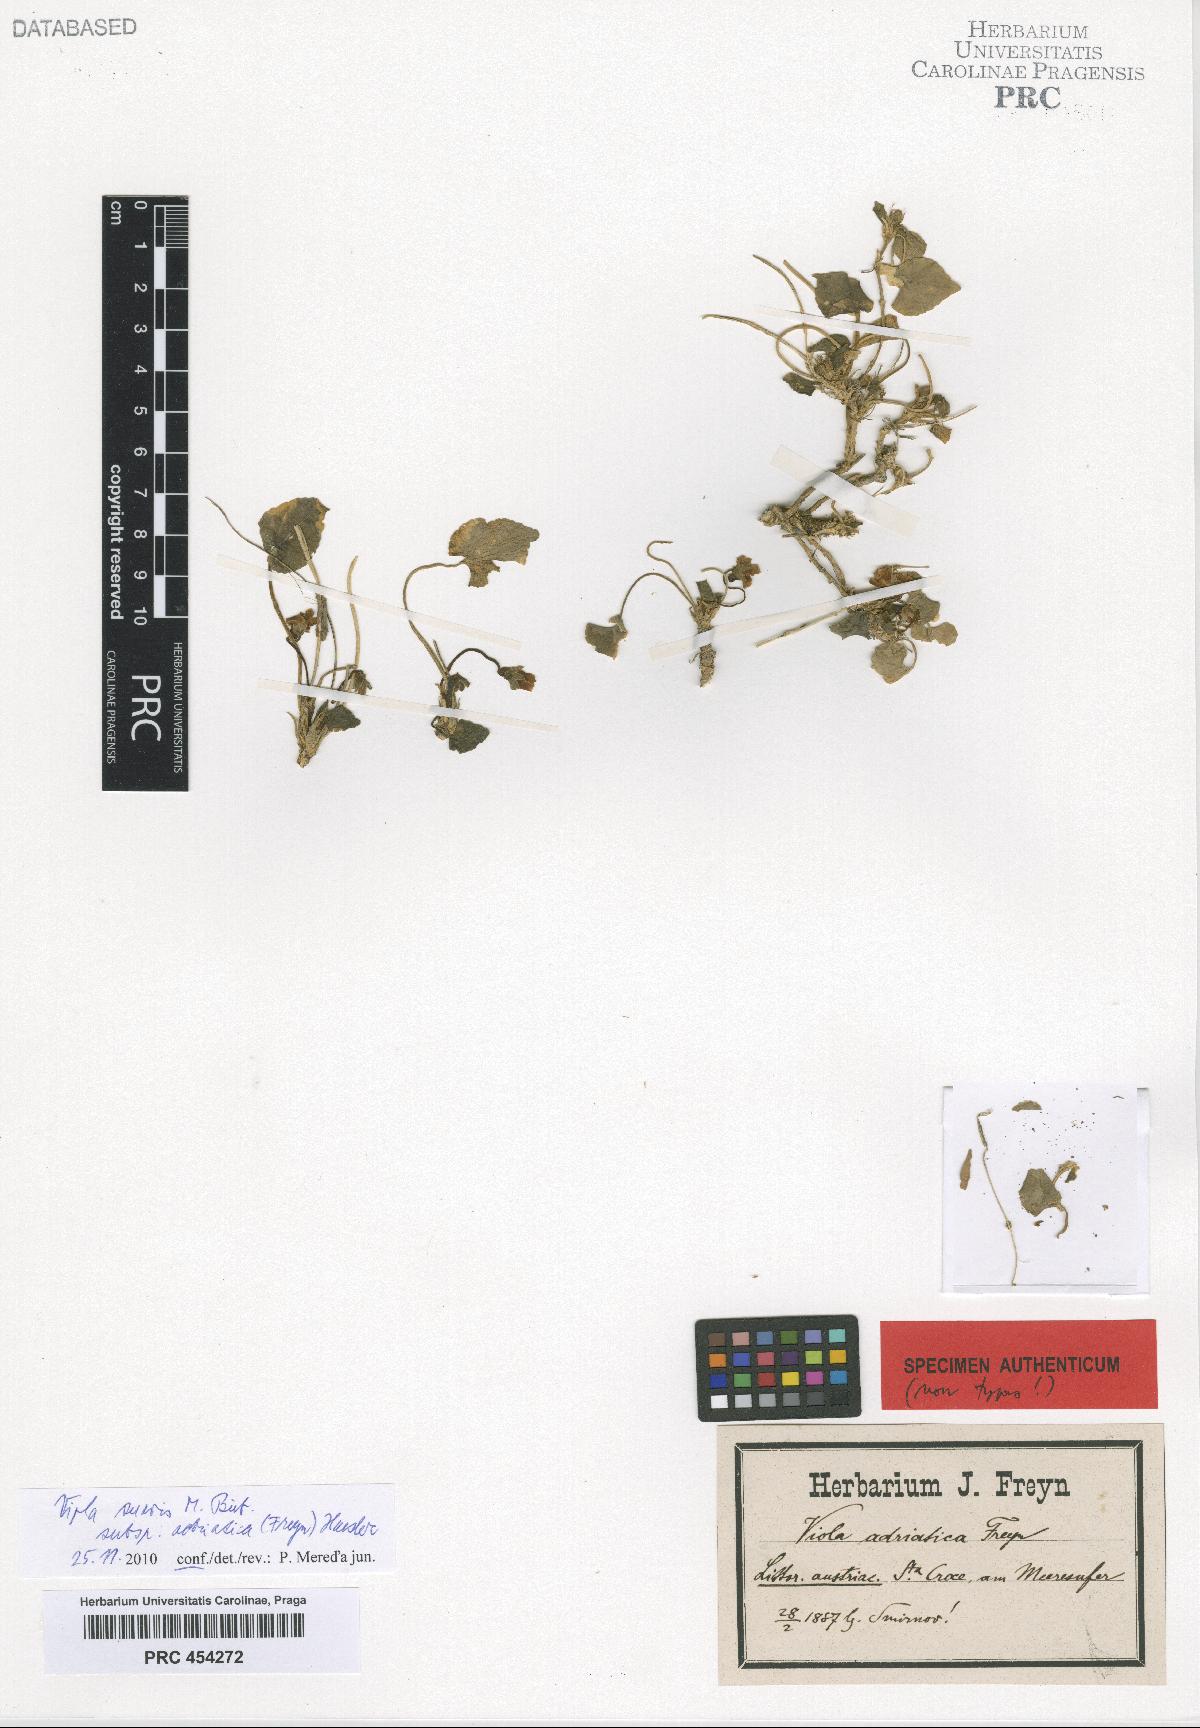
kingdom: Plantae
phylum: Tracheophyta
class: Magnoliopsida
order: Malpighiales
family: Violaceae
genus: Viola
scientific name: Viola suavis
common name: Russian violet
